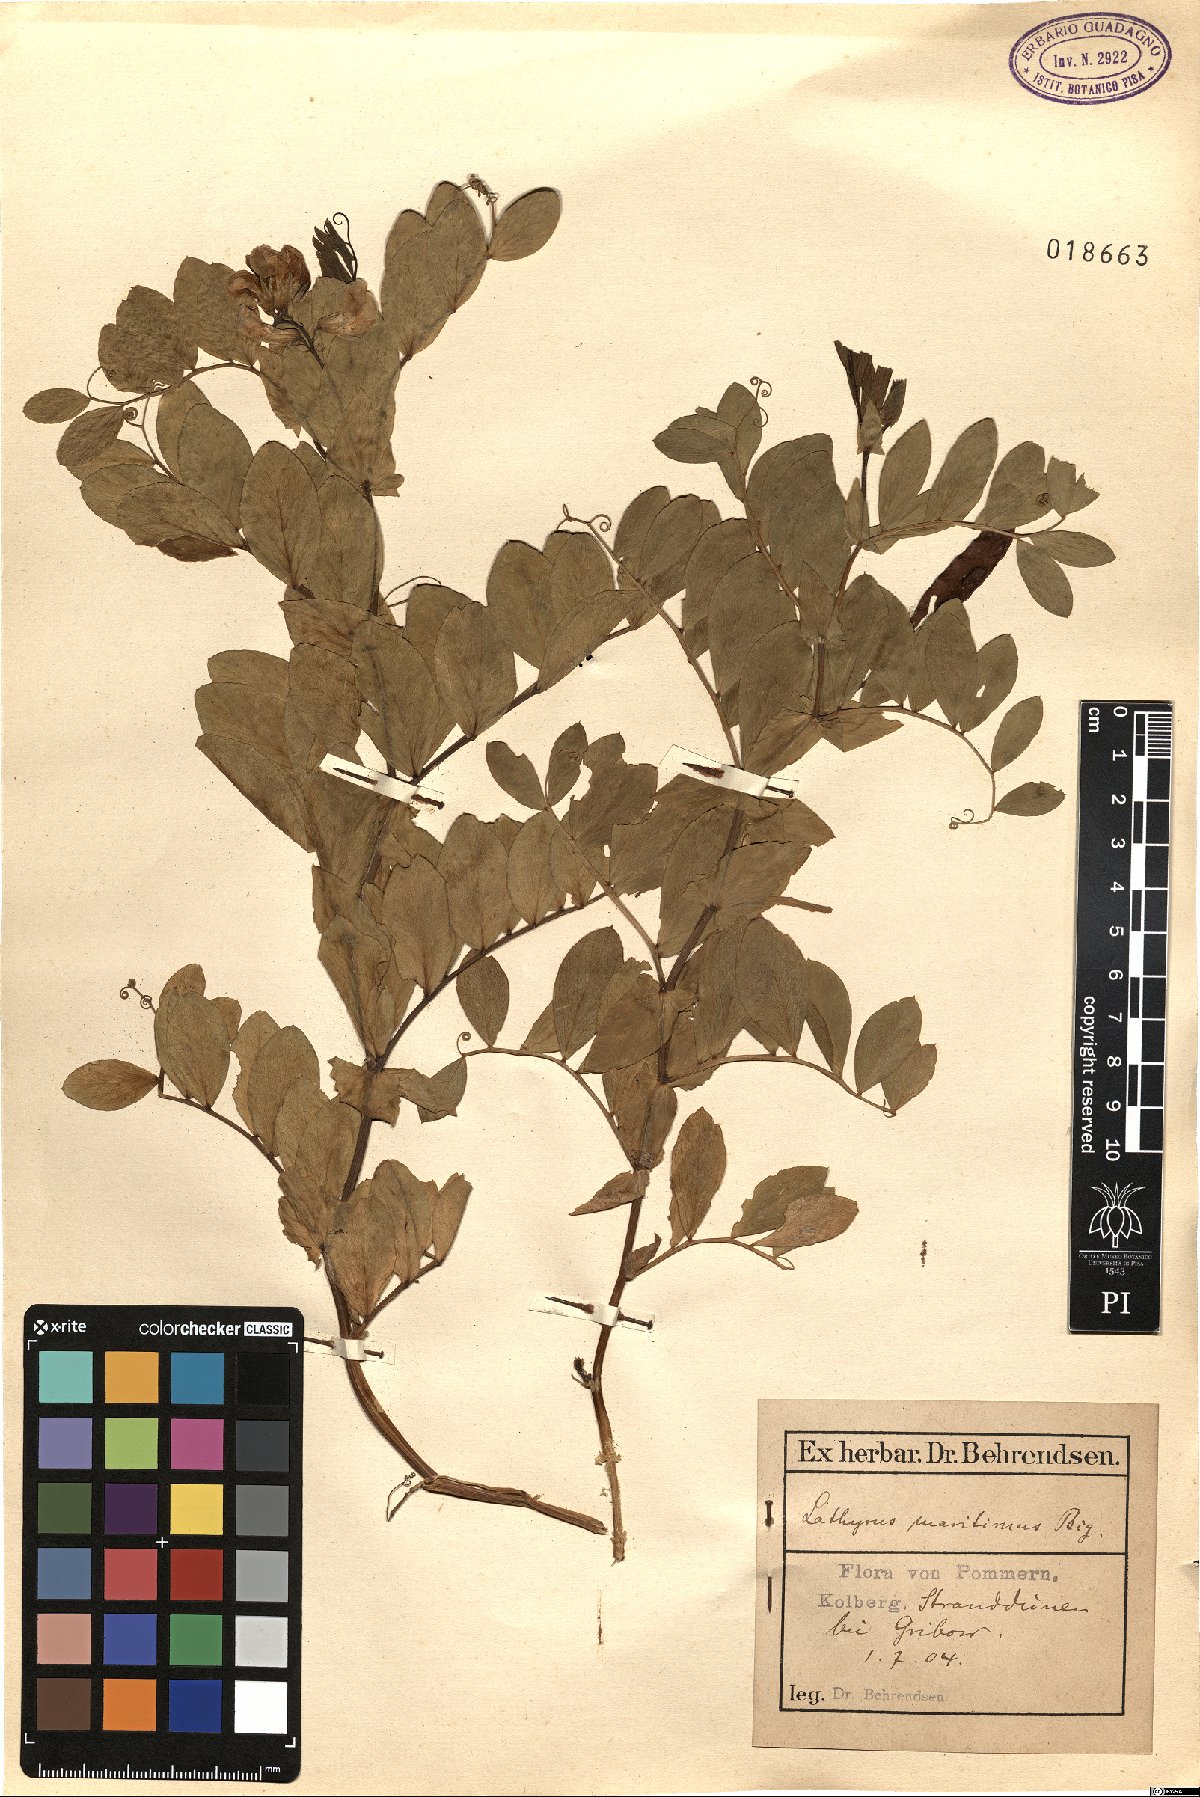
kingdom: Plantae
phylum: Tracheophyta
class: Magnoliopsida
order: Fabales
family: Fabaceae
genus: Lathyrus
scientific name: Lathyrus japonicus
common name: Sea pea
